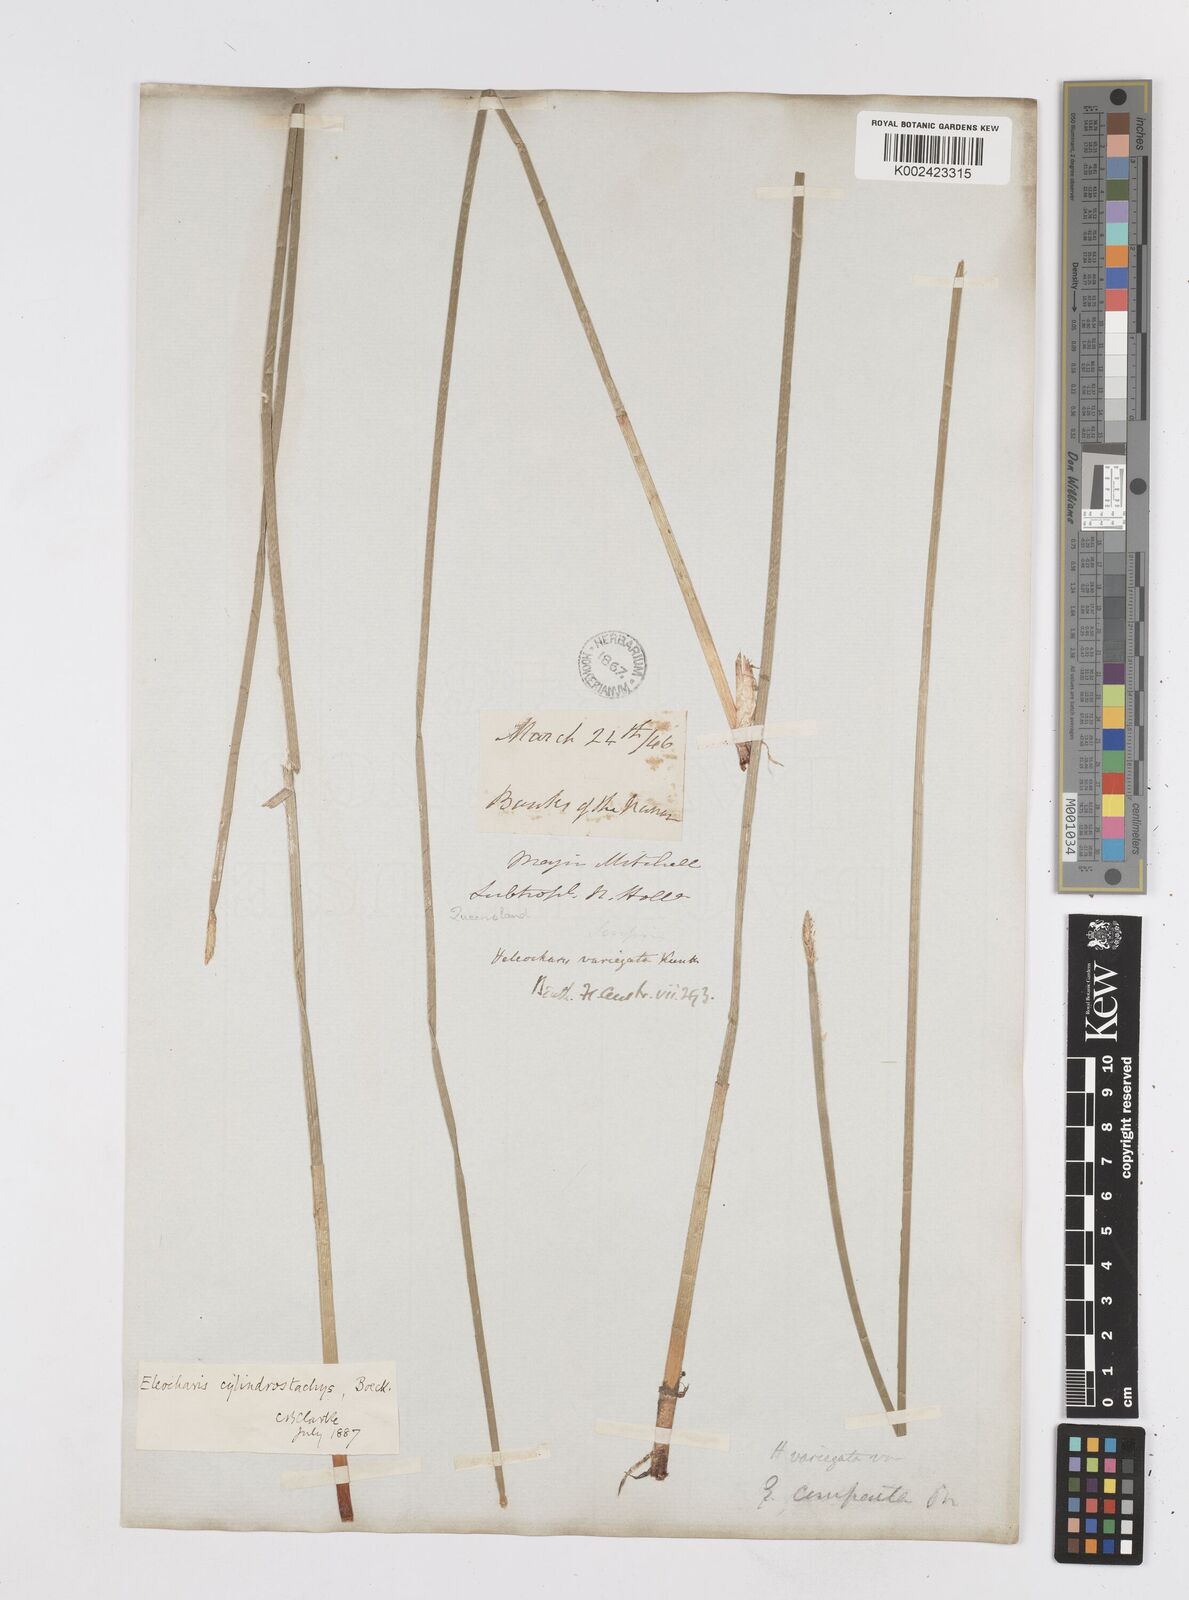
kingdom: Plantae
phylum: Tracheophyta
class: Liliopsida
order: Poales
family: Cyperaceae
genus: Eleocharis
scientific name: Eleocharis cylindrostachys
